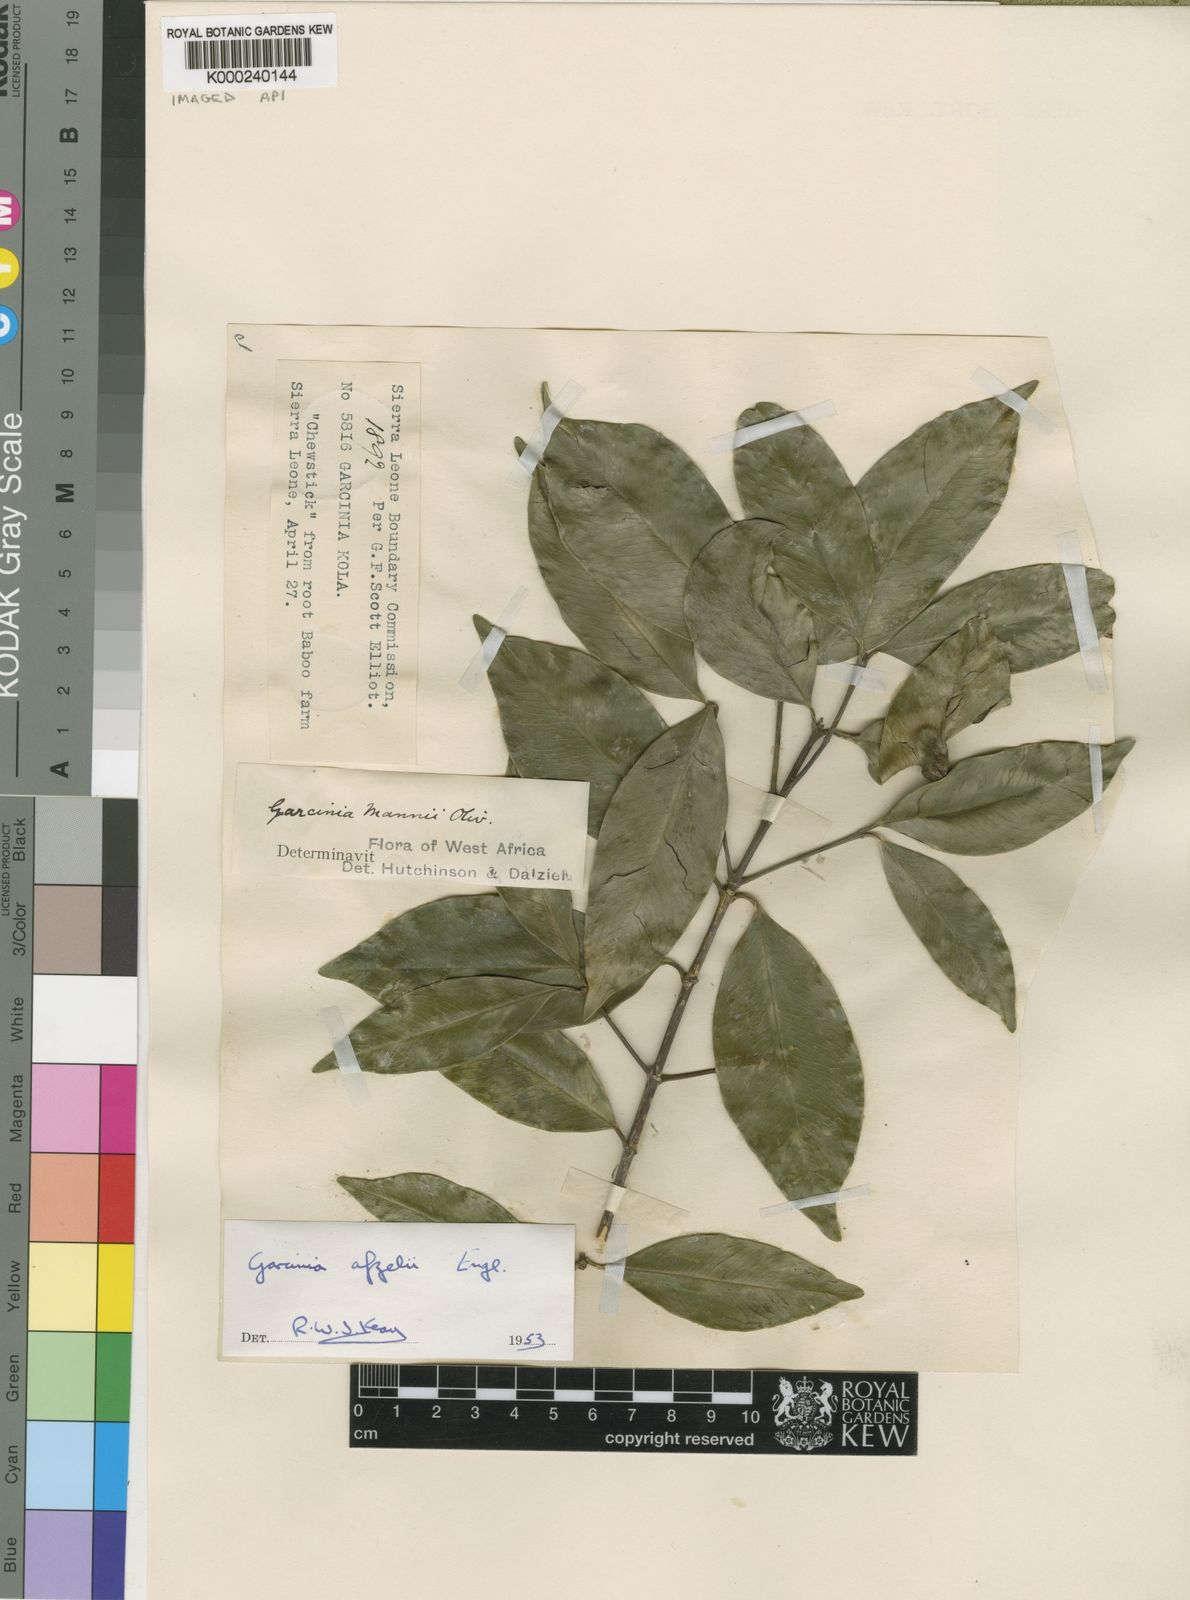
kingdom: Plantae
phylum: Tracheophyta
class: Magnoliopsida
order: Malpighiales
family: Clusiaceae
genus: Garcinia
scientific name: Garcinia afzelii
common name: Bitter-kola
